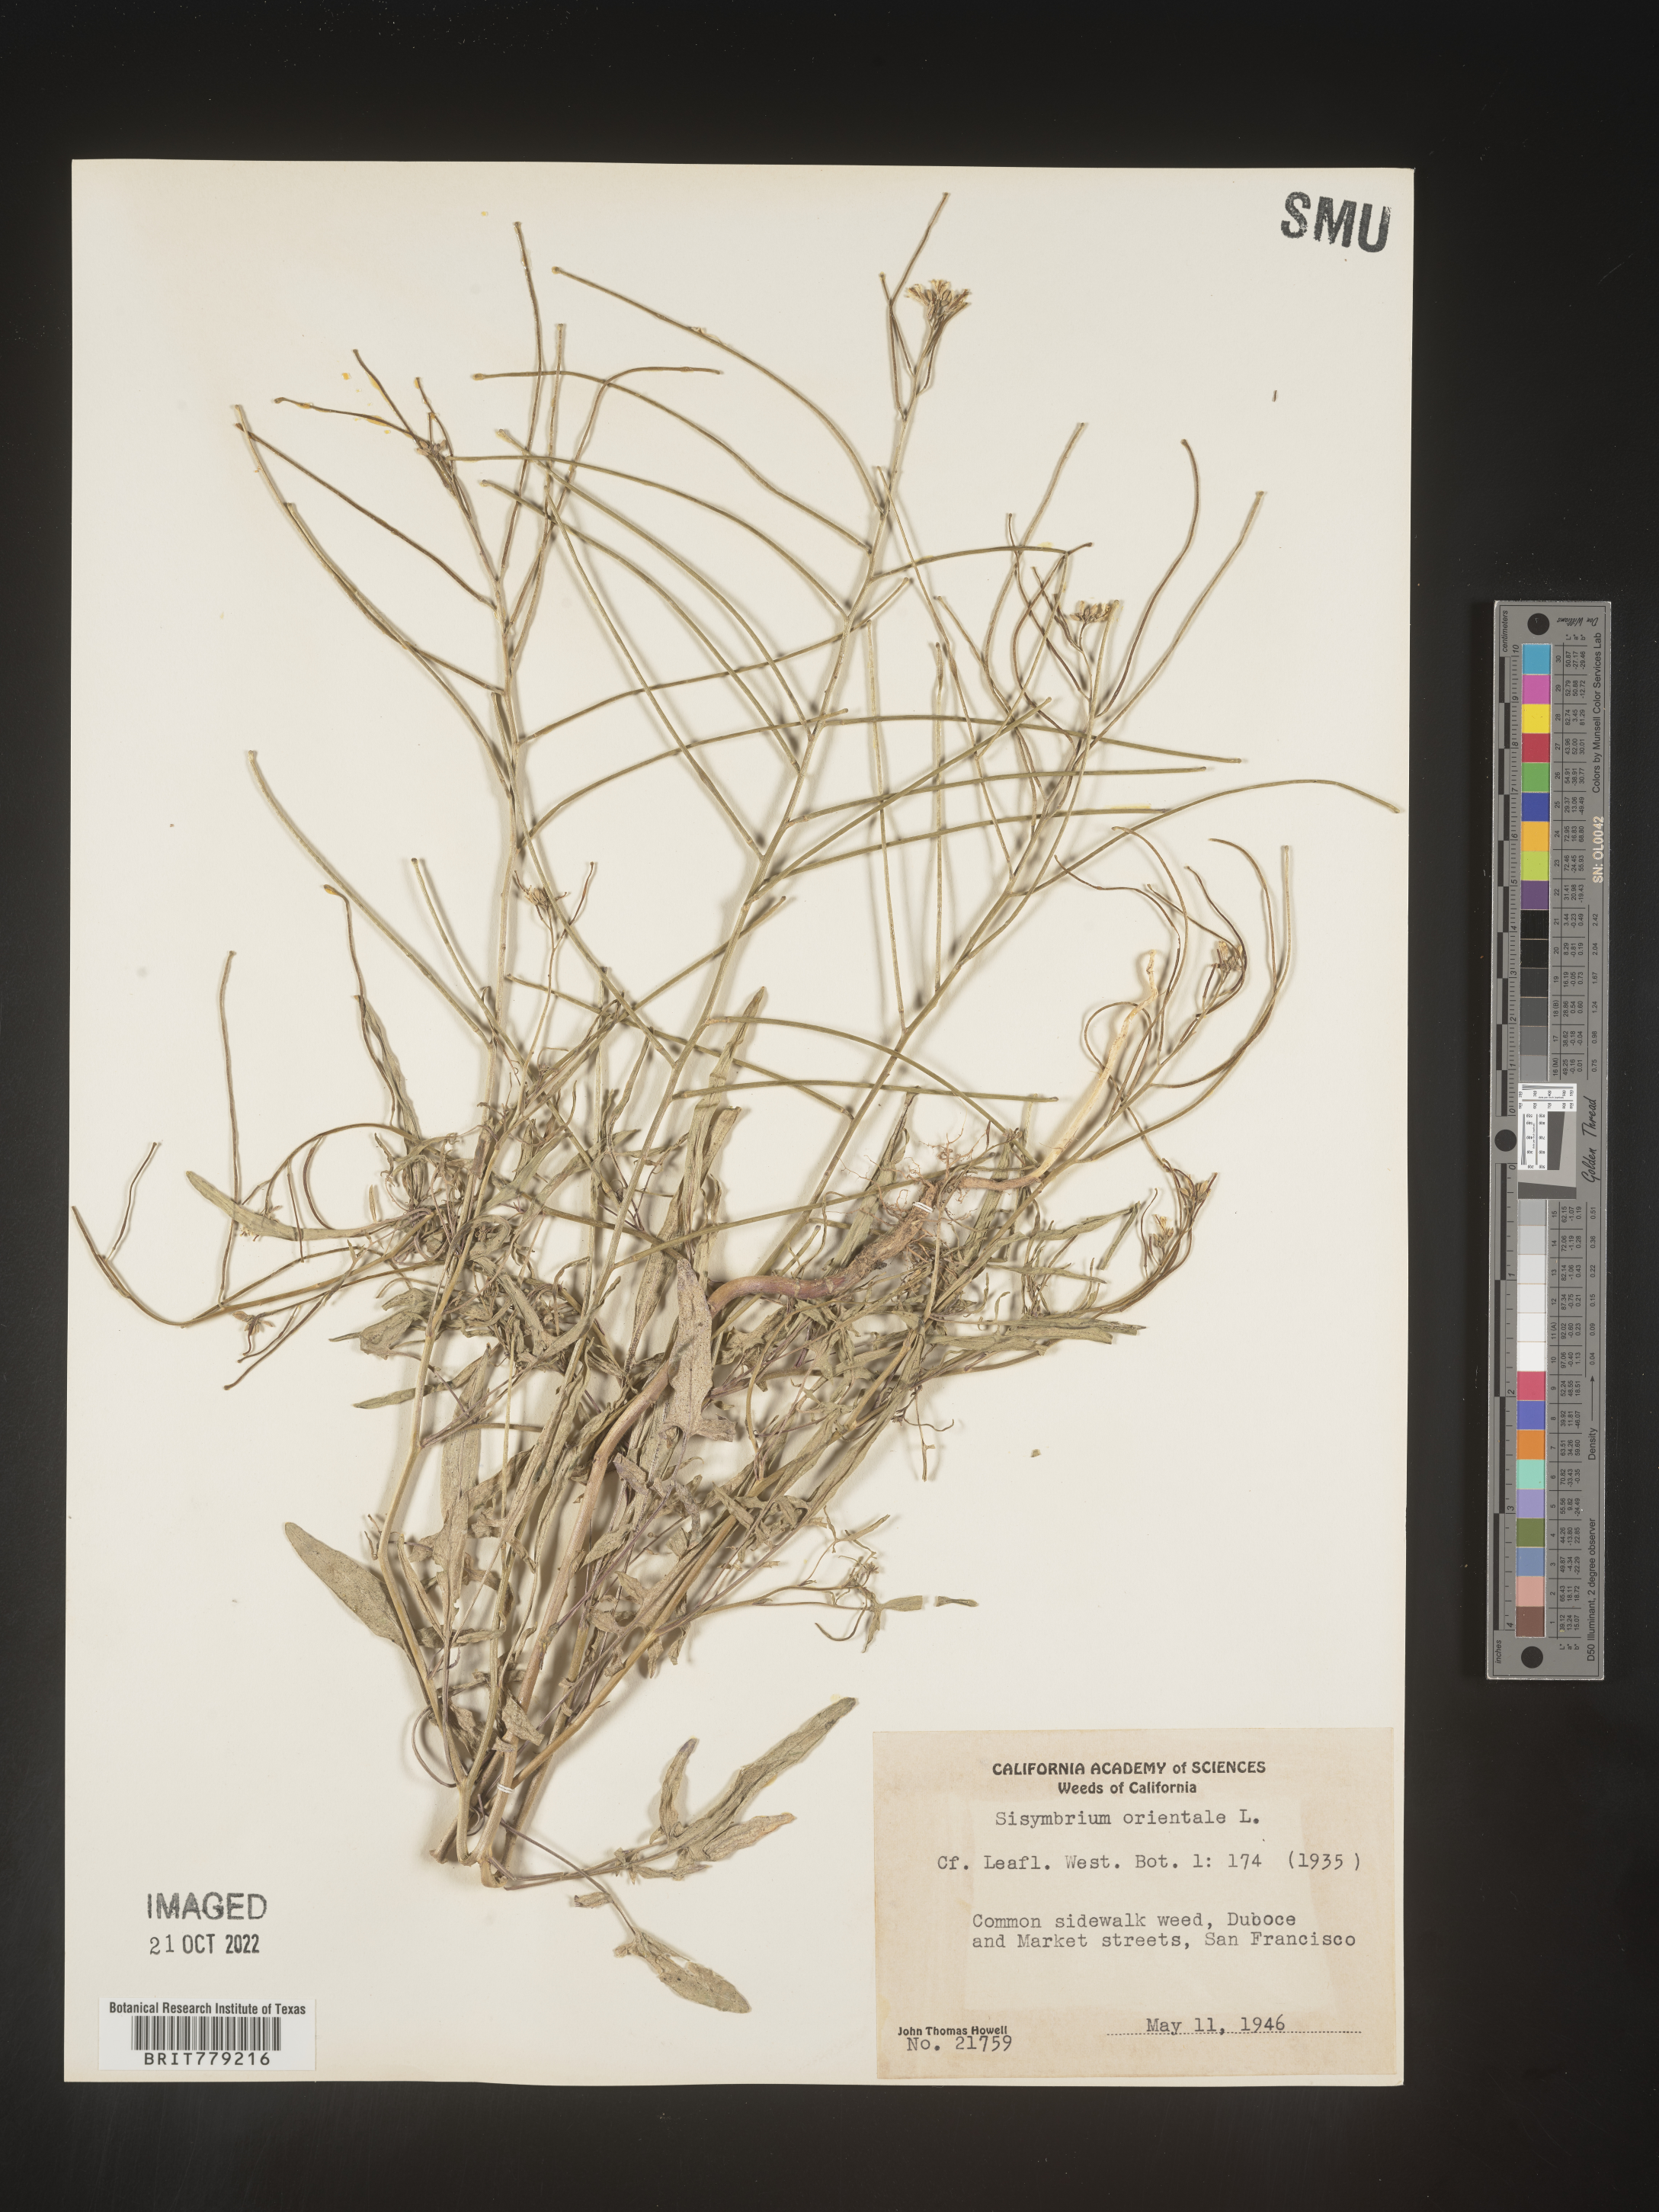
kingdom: Plantae
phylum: Tracheophyta
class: Magnoliopsida
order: Brassicales
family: Brassicaceae
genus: Sisymbrium
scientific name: Sisymbrium orientale
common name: Eastern rocket
